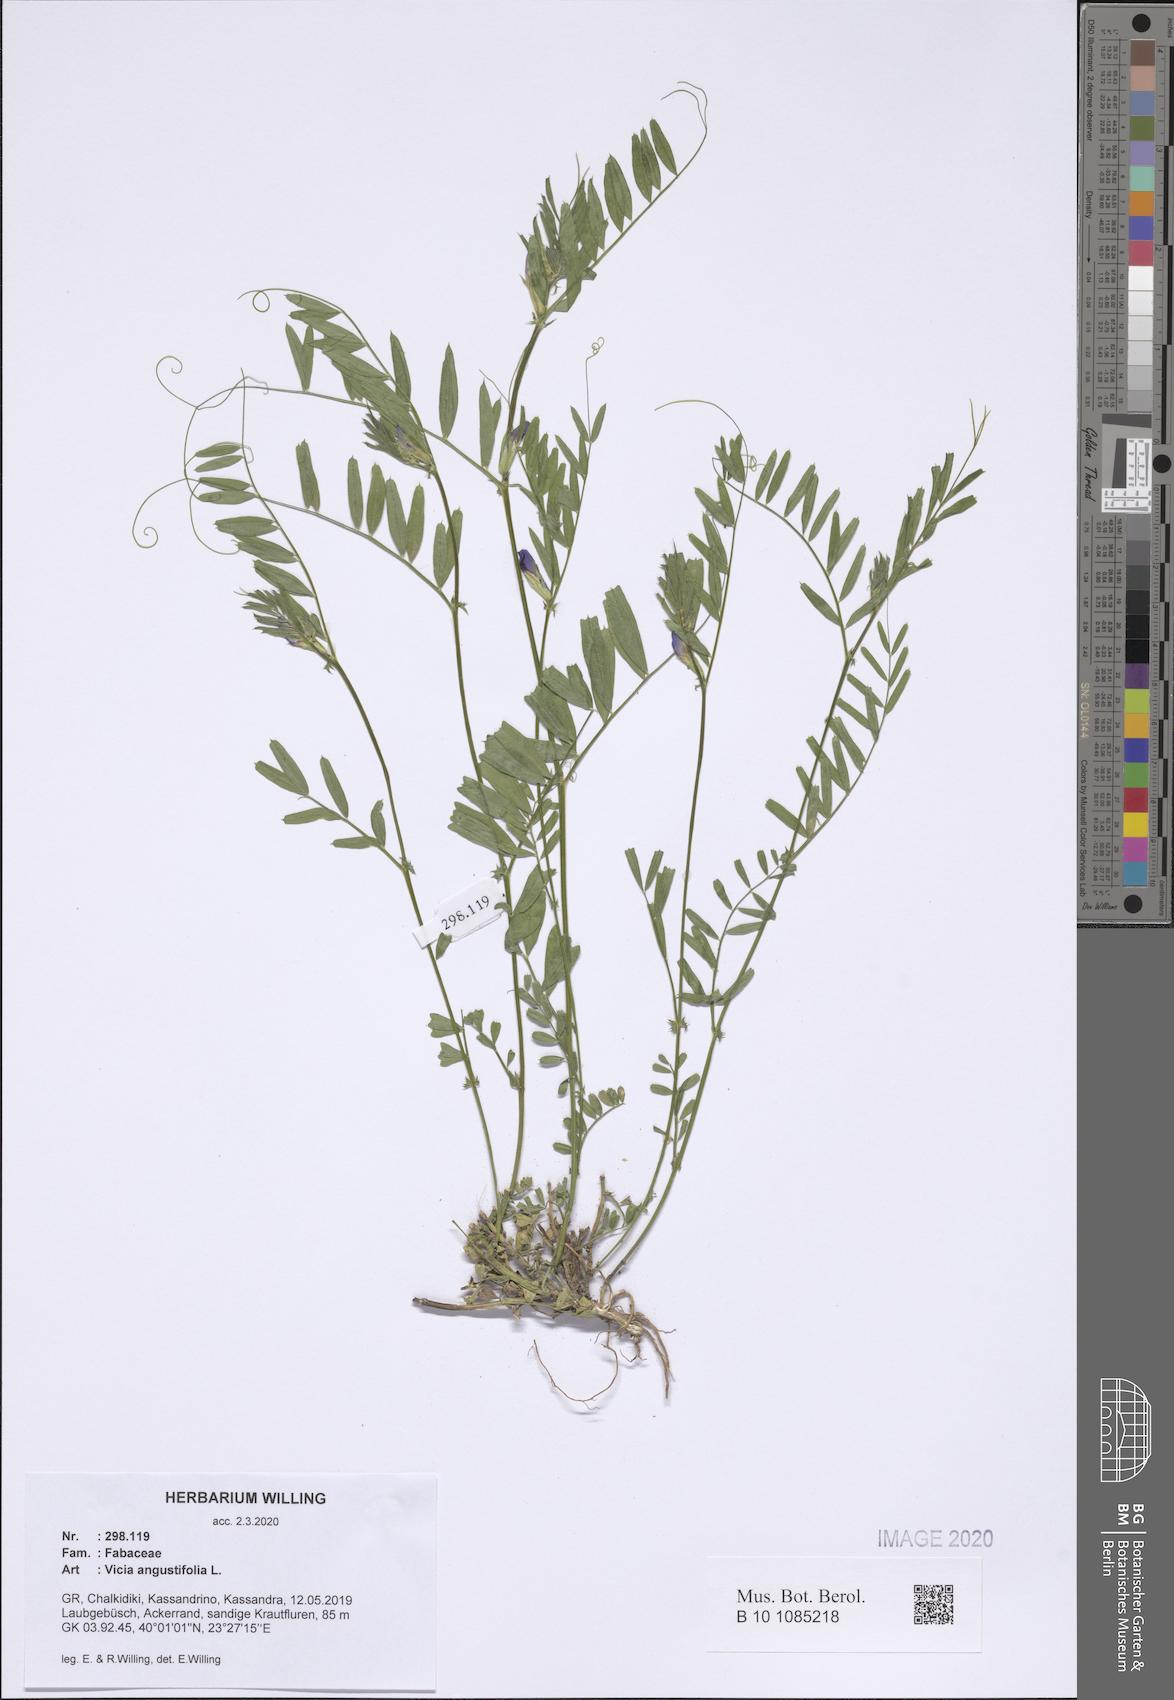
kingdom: Plantae
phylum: Tracheophyta
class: Magnoliopsida
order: Fabales
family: Fabaceae
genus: Vicia
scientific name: Vicia sativa
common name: Garden vetch
